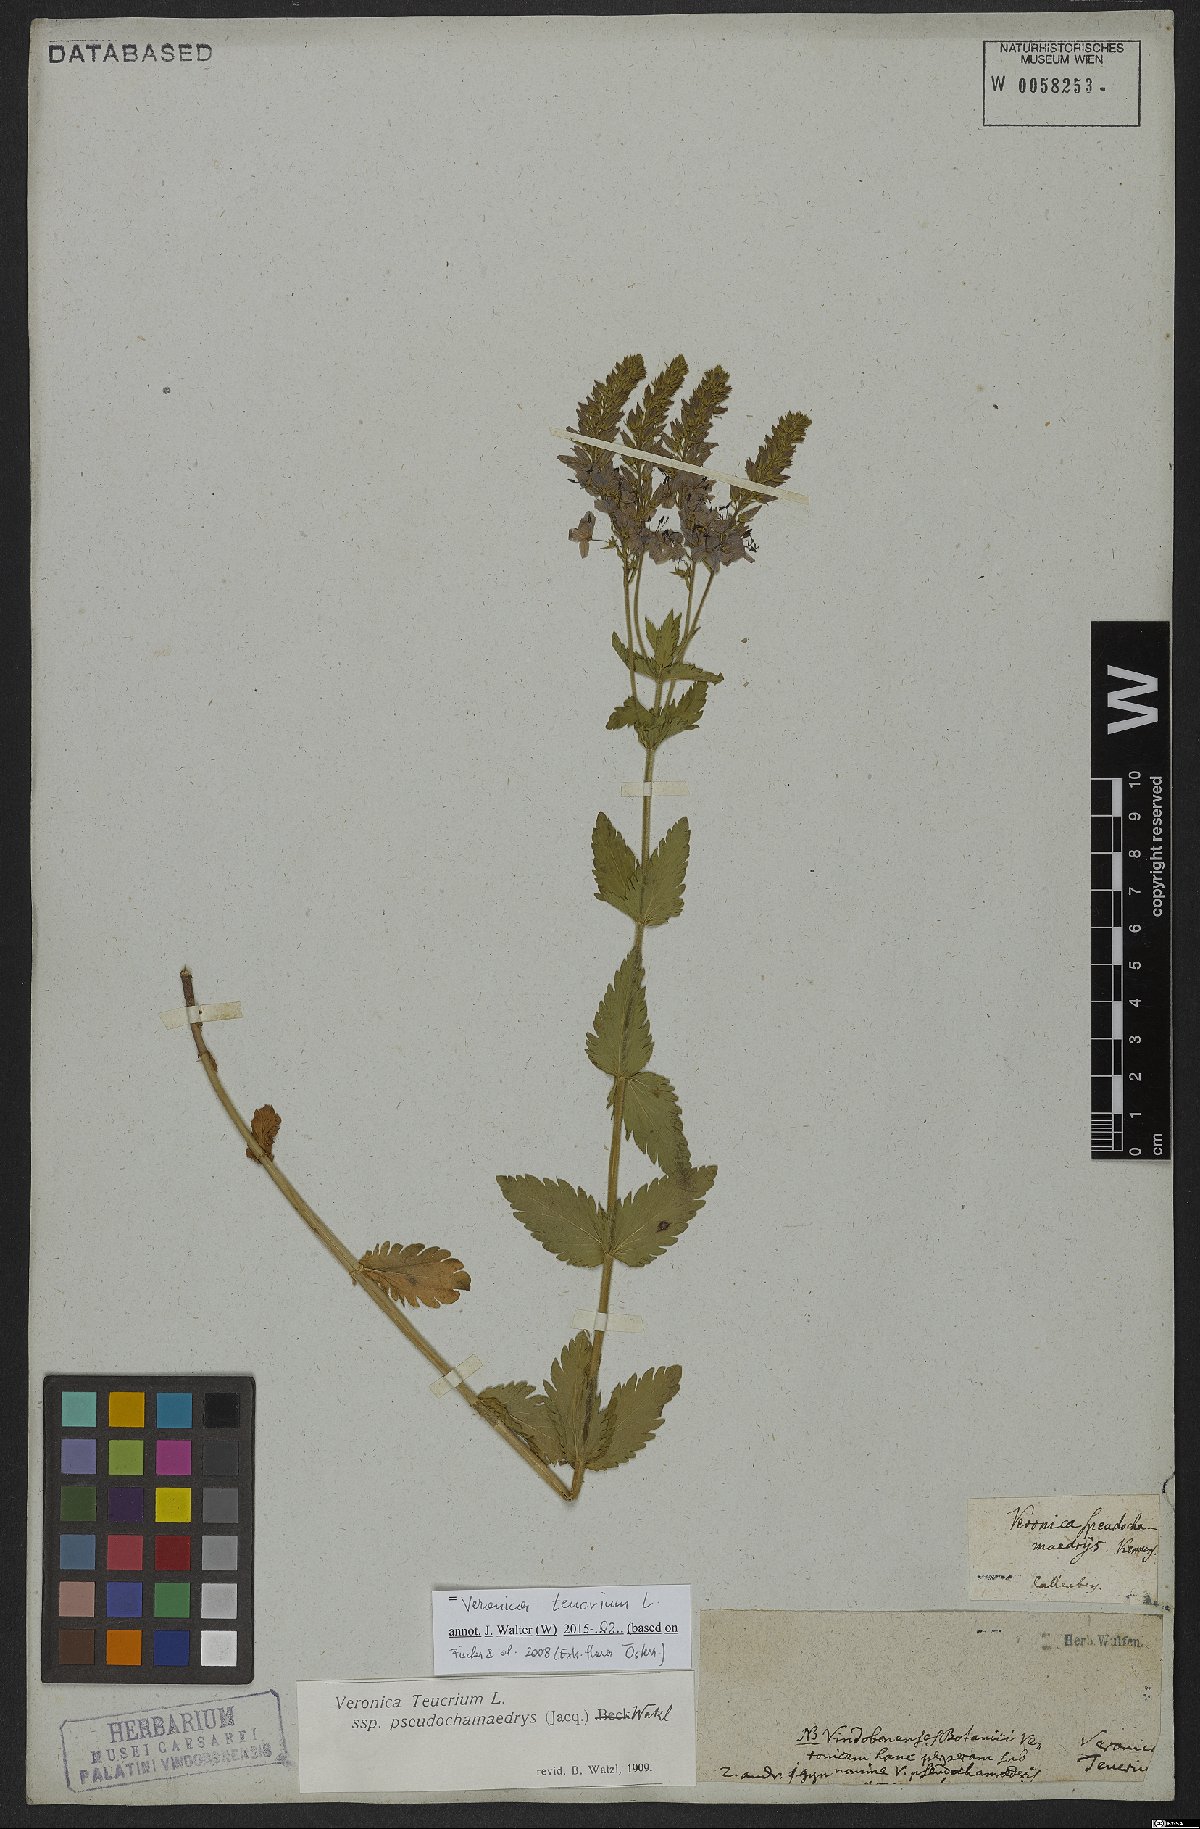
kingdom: Plantae
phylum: Tracheophyta
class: Magnoliopsida
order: Lamiales
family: Plantaginaceae
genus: Veronica
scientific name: Veronica teucrium
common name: Large speedwell
